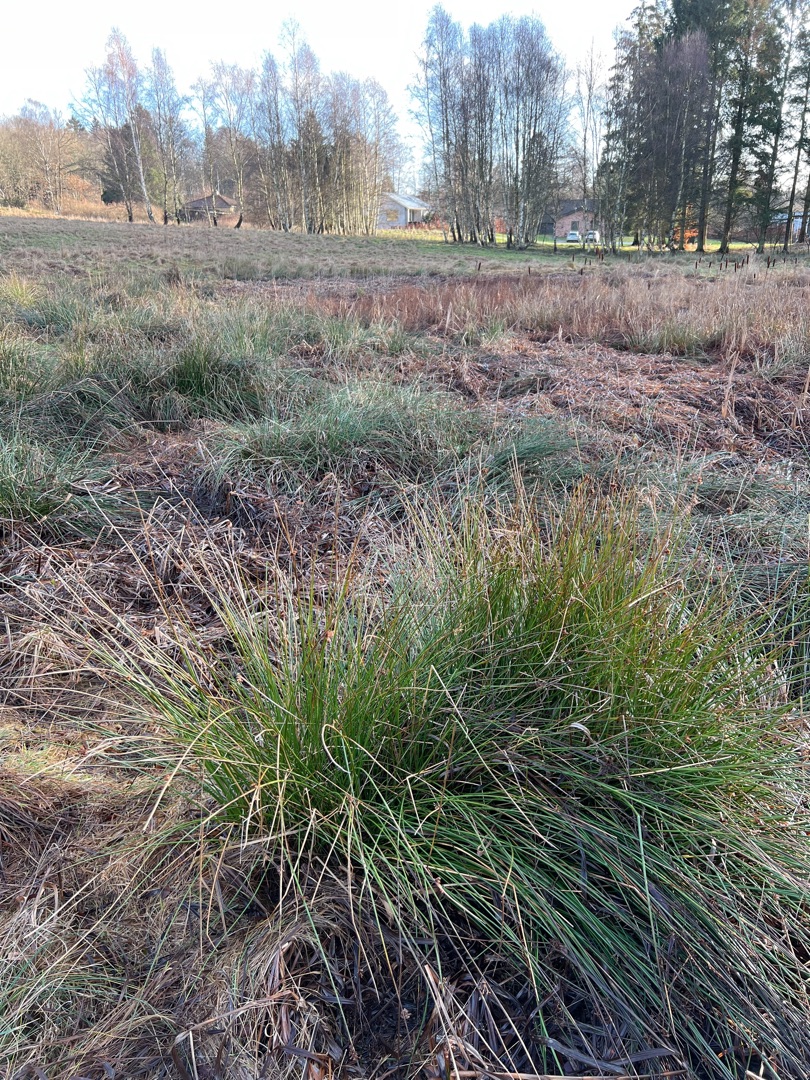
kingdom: Plantae
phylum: Tracheophyta
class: Liliopsida
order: Poales
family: Juncaceae
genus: Juncus
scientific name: Juncus effusus
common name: Lyse-siv
